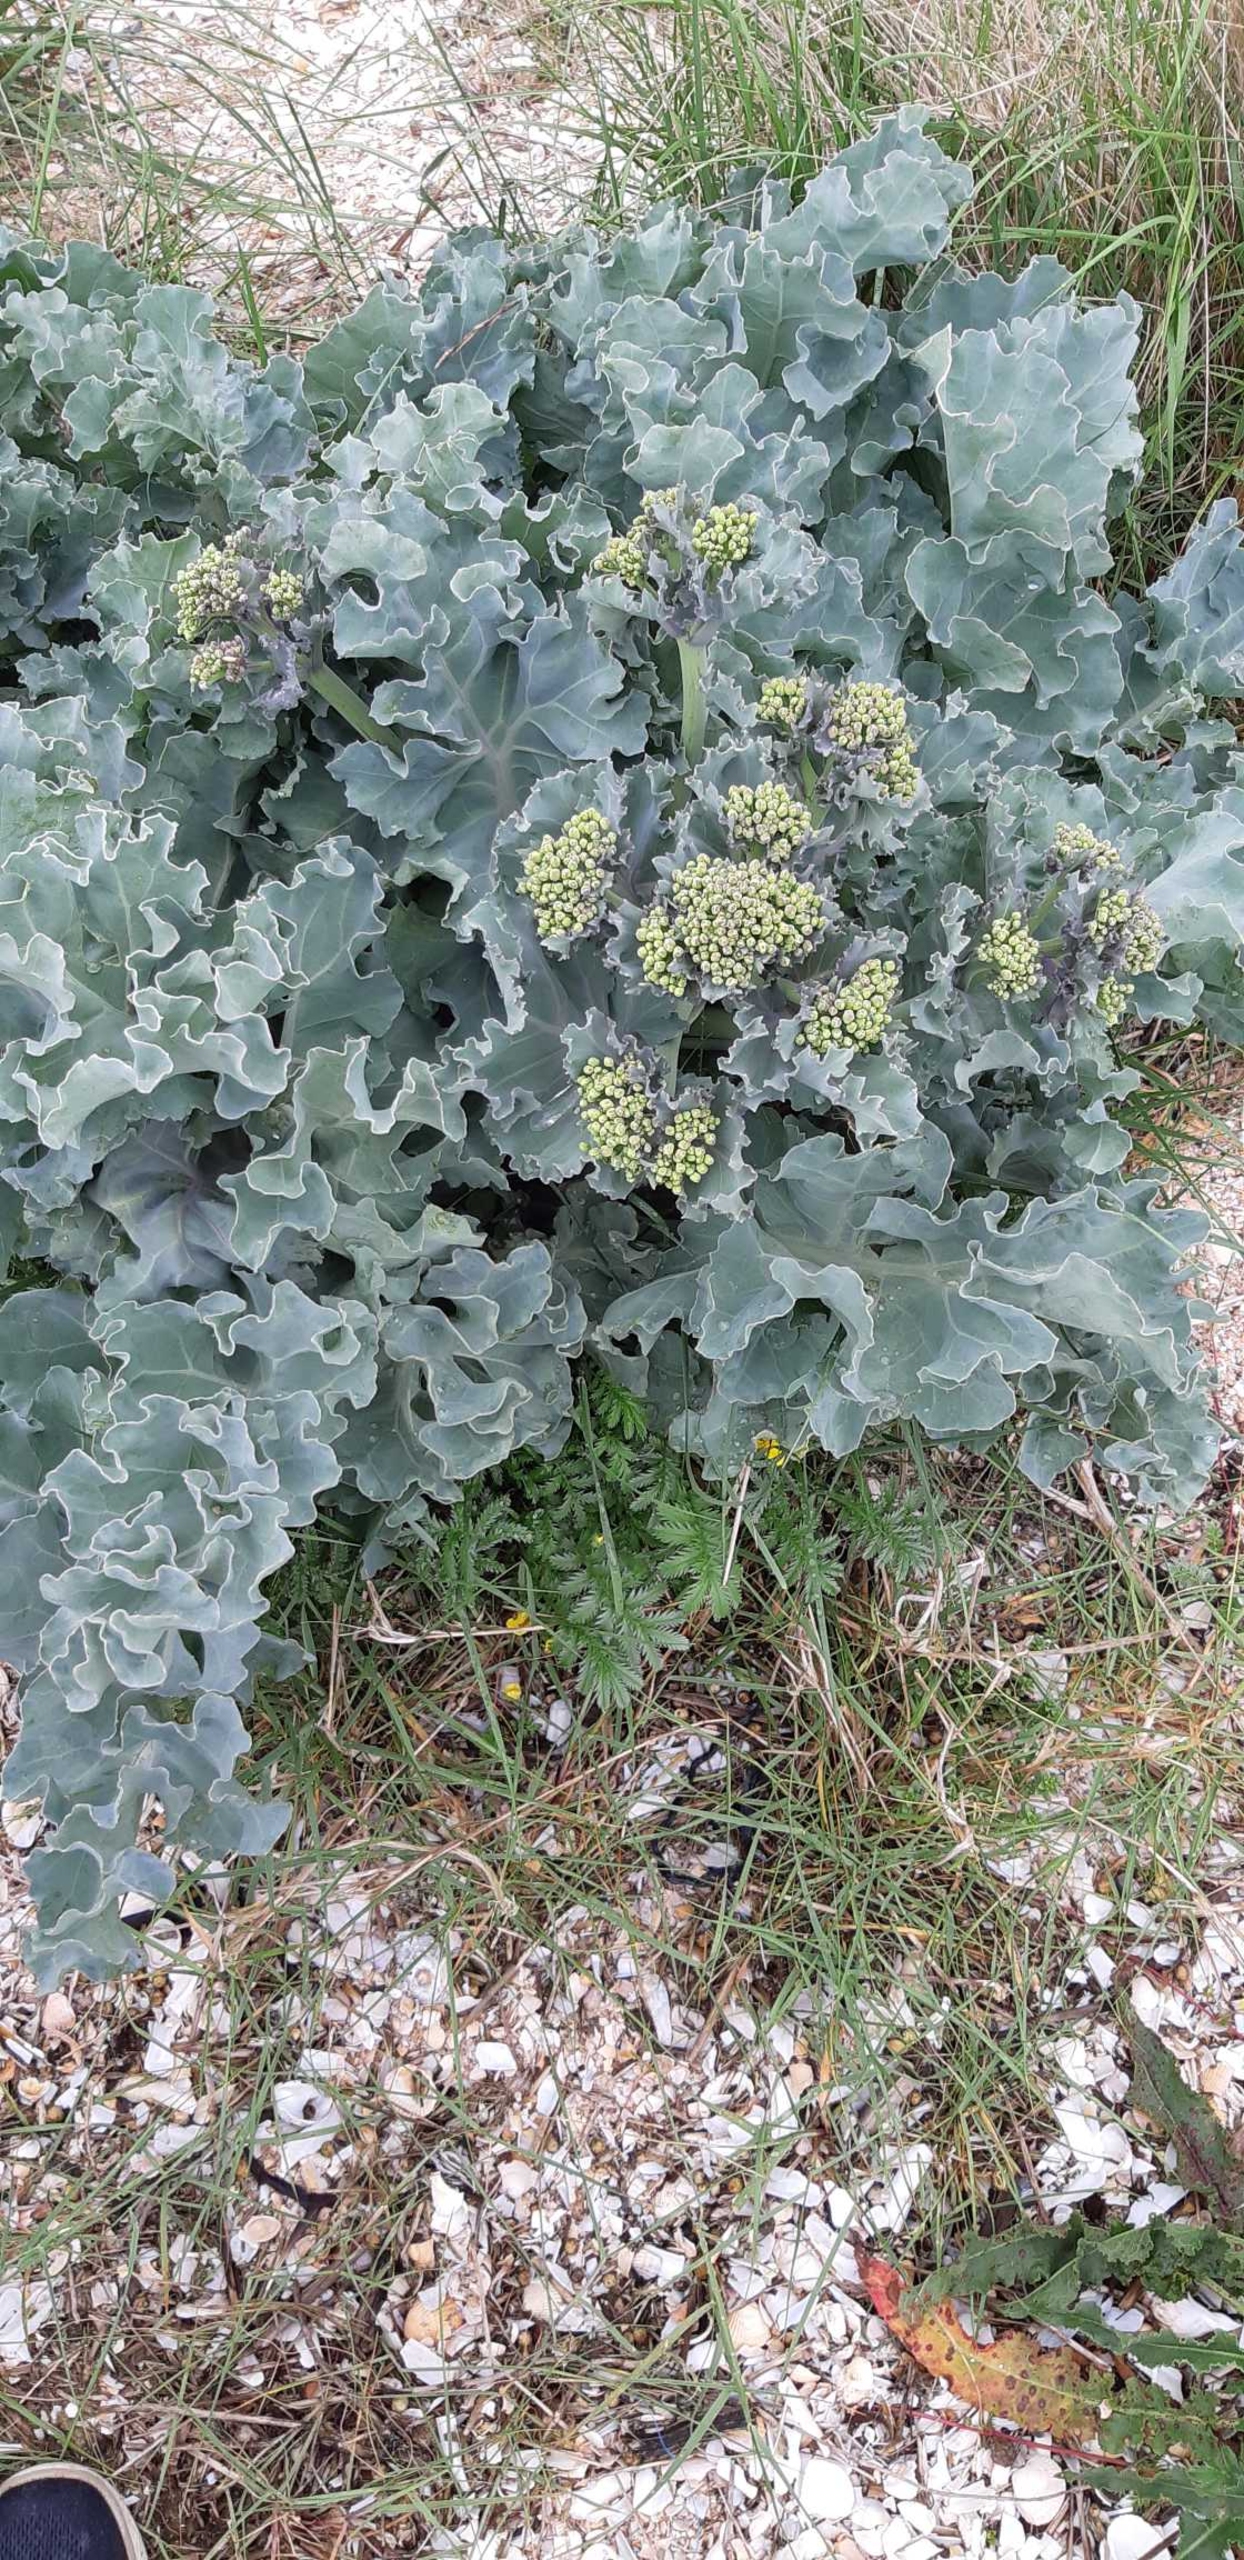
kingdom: Plantae
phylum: Tracheophyta
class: Magnoliopsida
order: Brassicales
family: Brassicaceae
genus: Crambe
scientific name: Crambe maritima
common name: Strandkål
